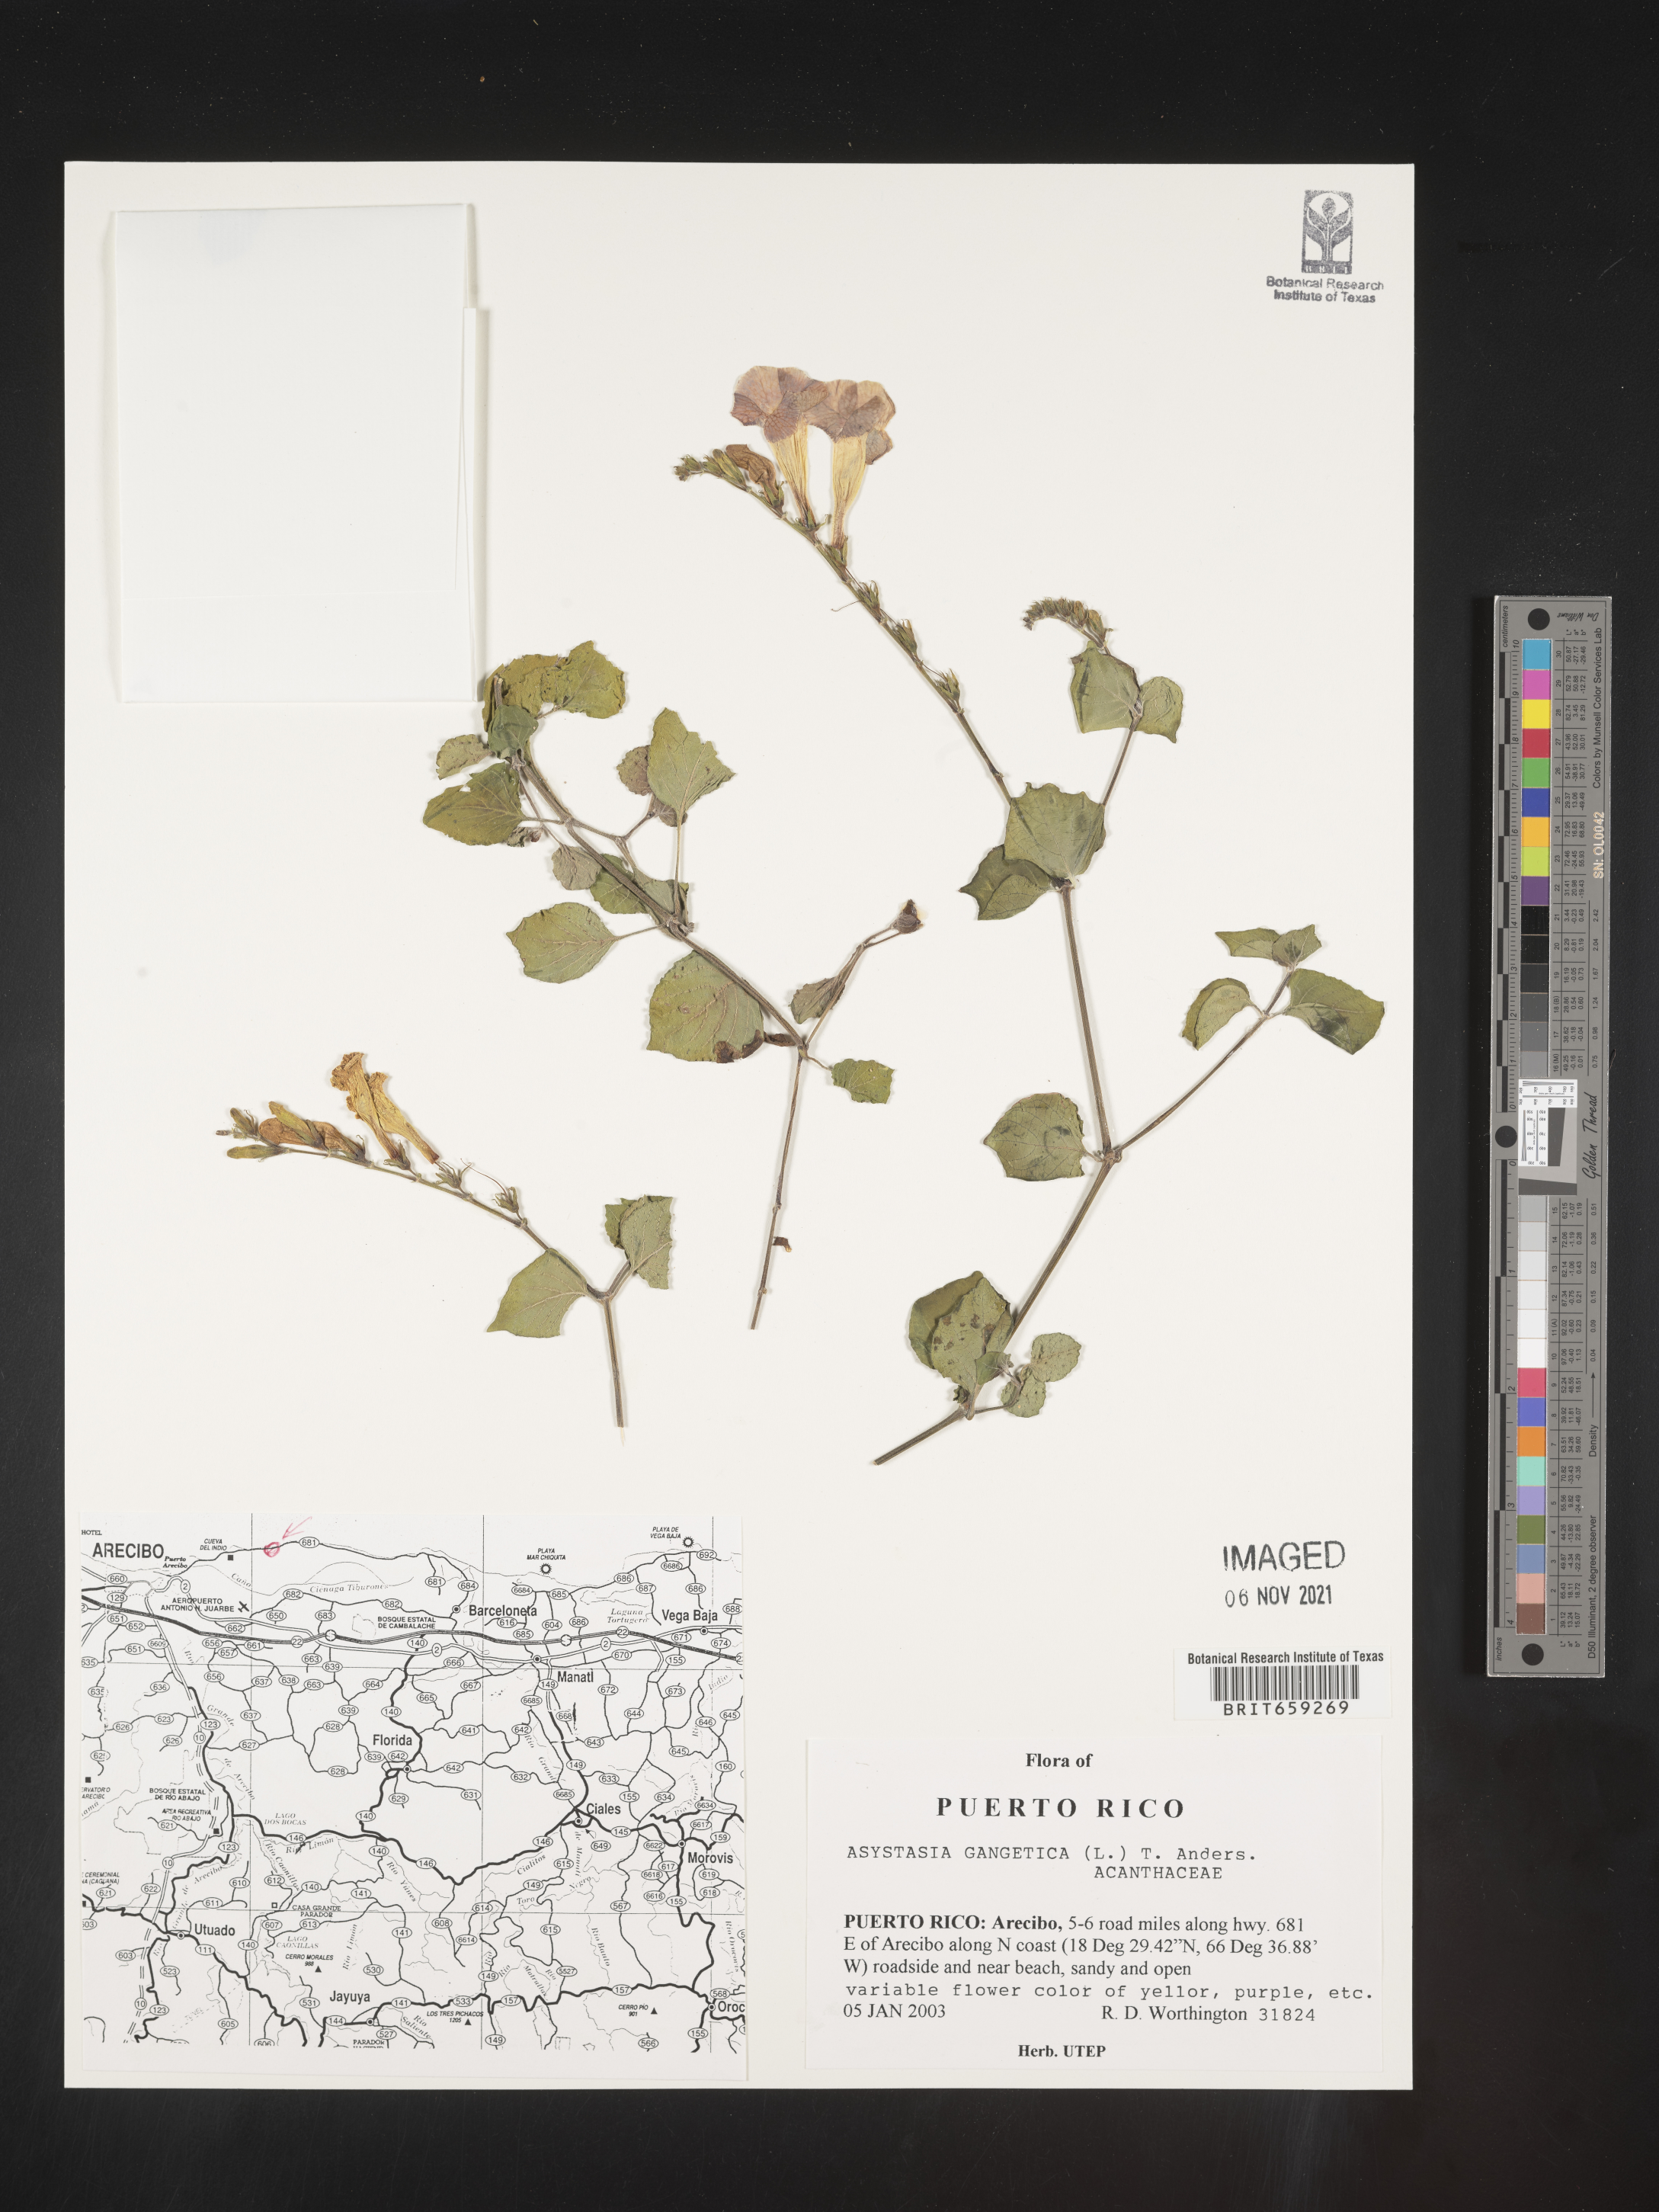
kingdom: Plantae
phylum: Tracheophyta
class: Magnoliopsida
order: Lamiales
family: Acanthaceae
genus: Asystasia
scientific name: Asystasia
